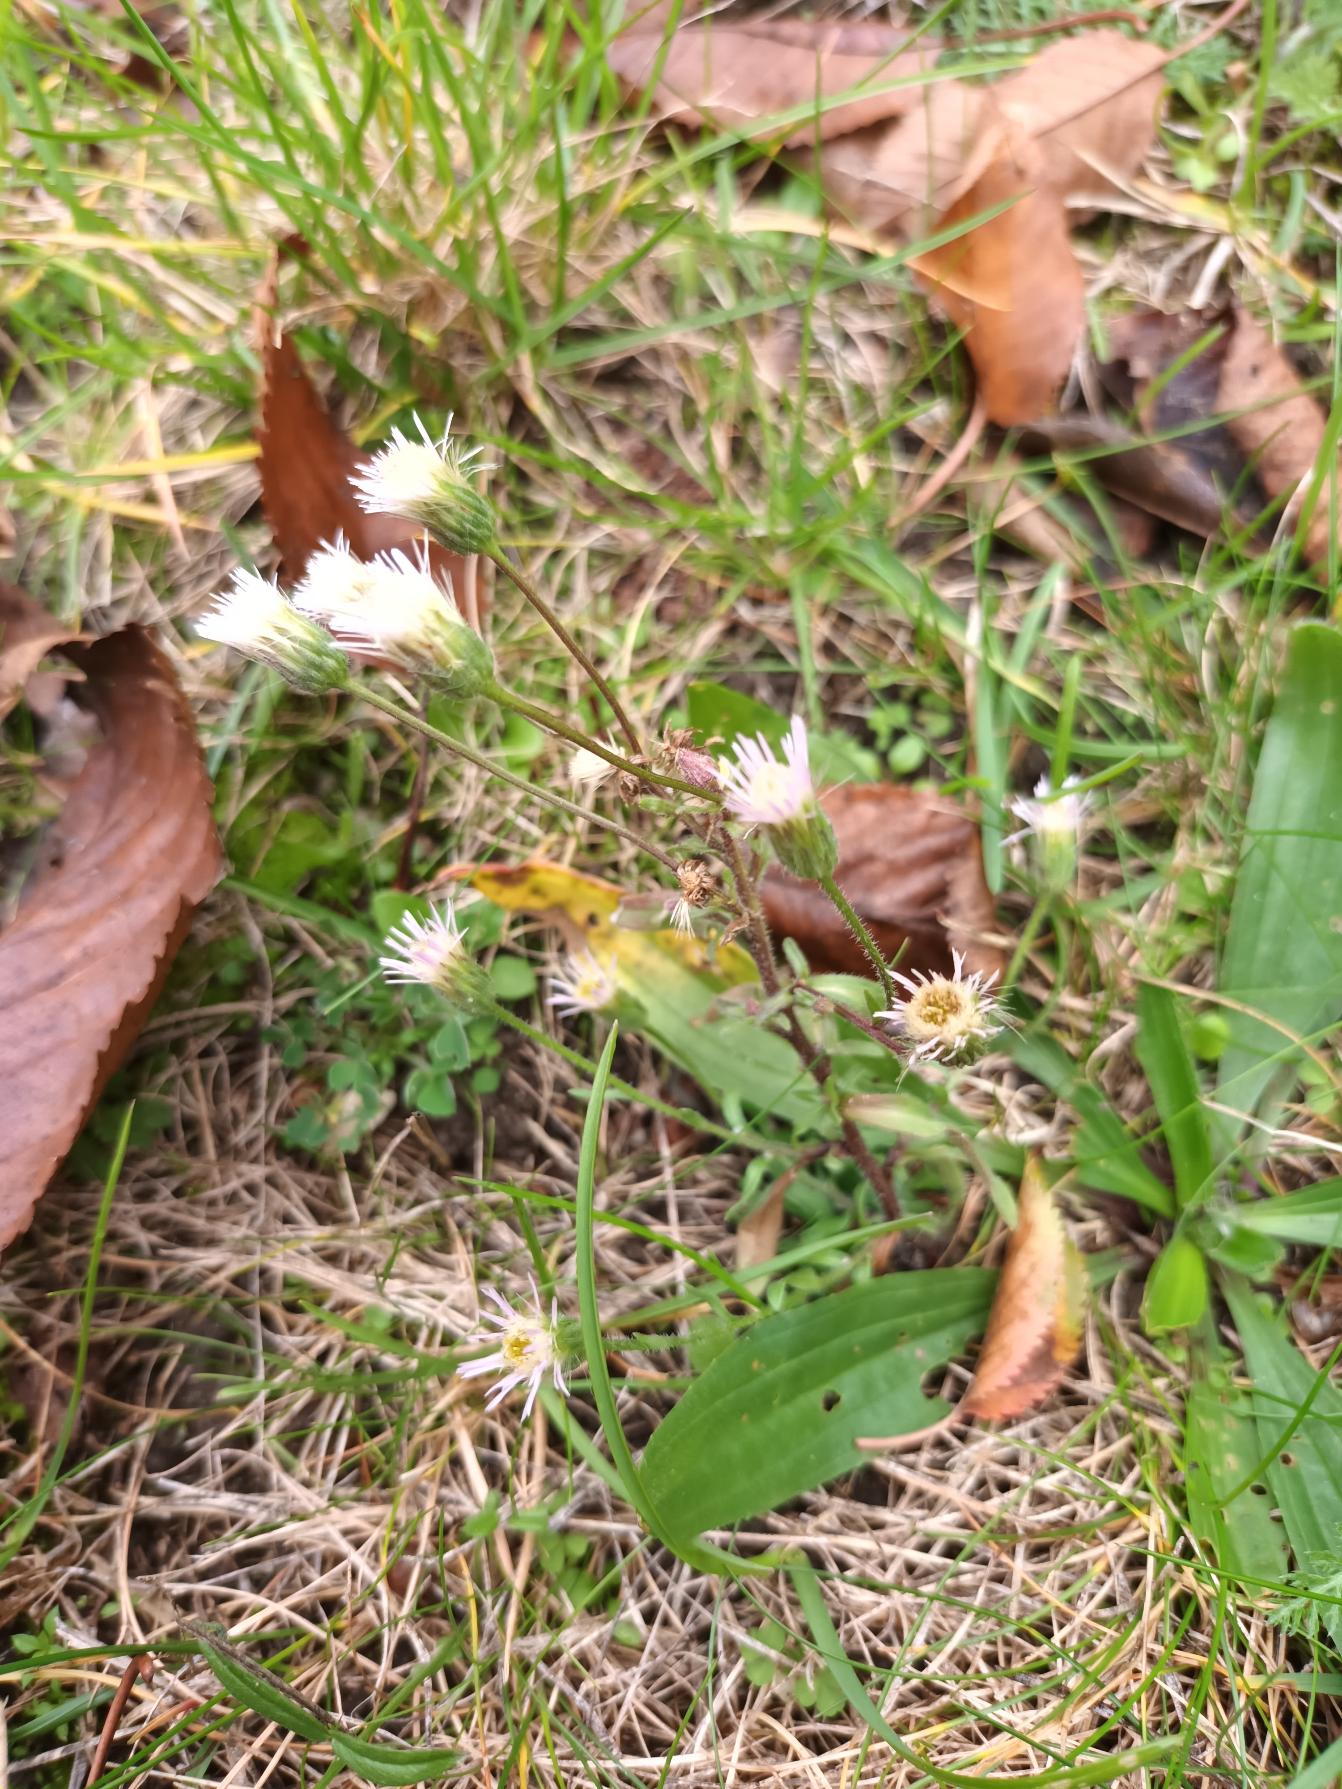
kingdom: Plantae
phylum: Tracheophyta
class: Magnoliopsida
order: Asterales
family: Asteraceae
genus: Erigeron
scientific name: Erigeron muralis
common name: Vreden bakkestjerne
